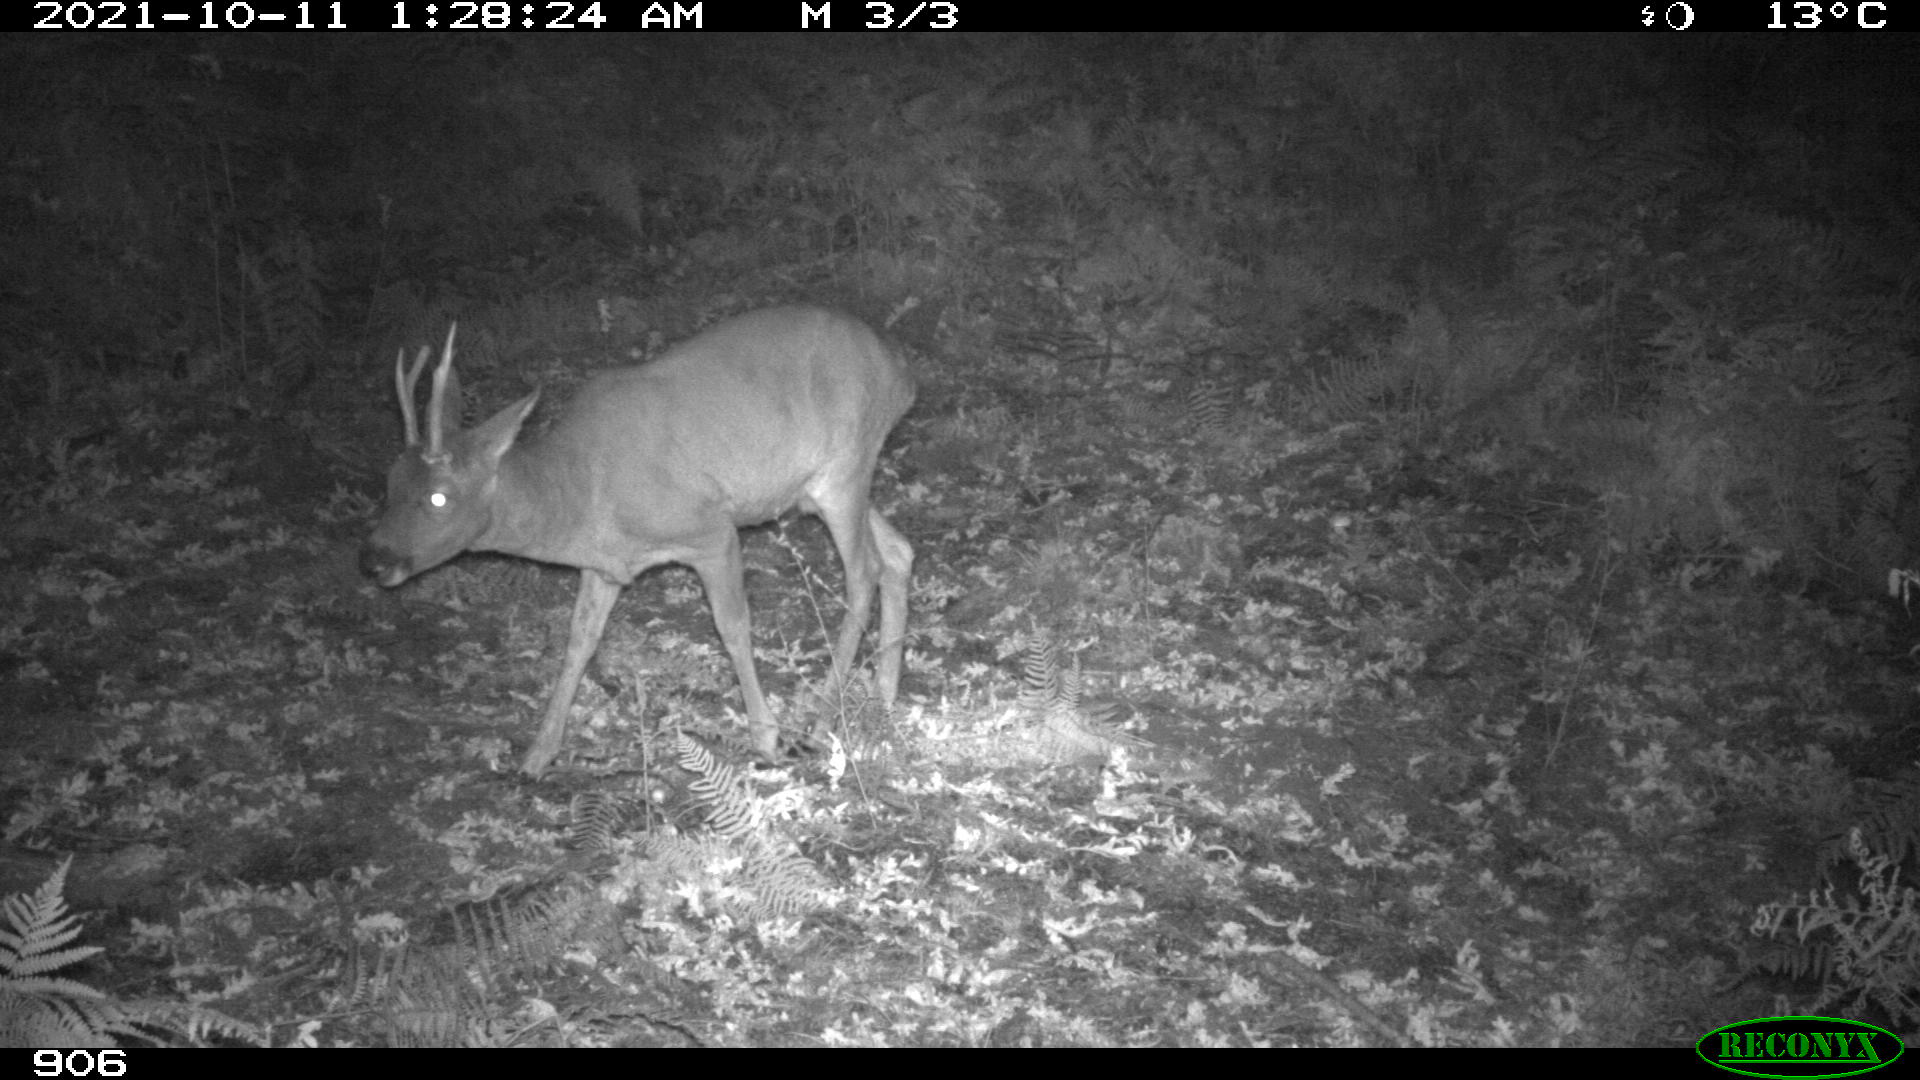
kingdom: Animalia
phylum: Chordata
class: Mammalia
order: Artiodactyla
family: Cervidae
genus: Capreolus
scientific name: Capreolus capreolus
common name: Western roe deer
